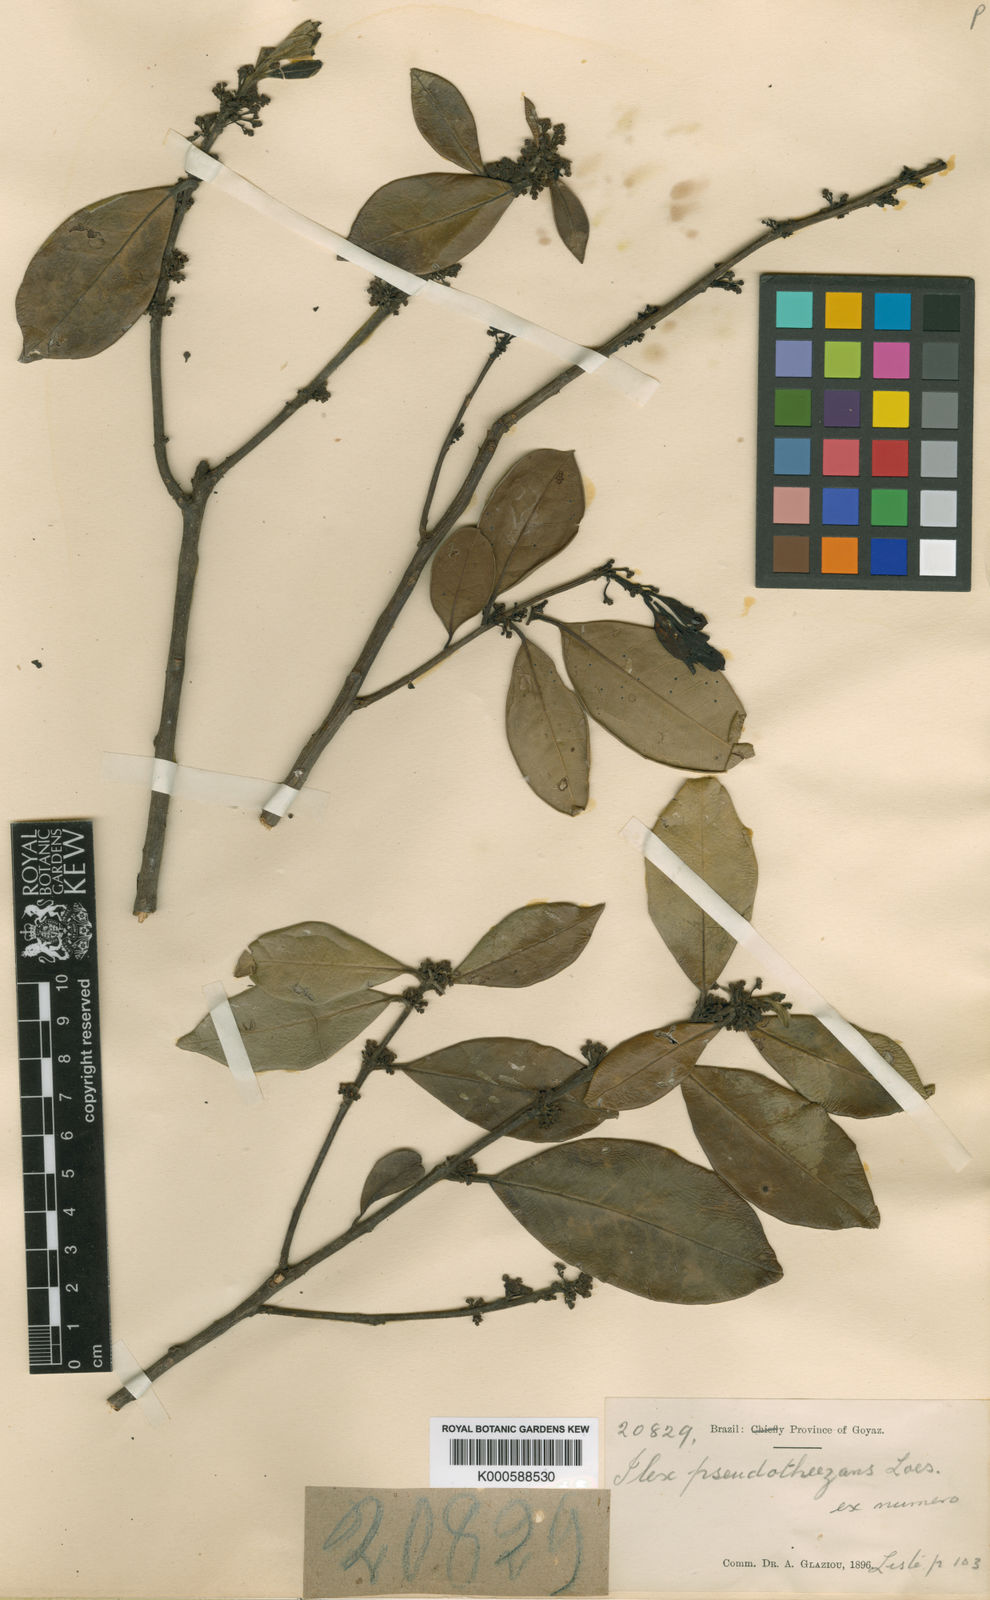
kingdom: Plantae
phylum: Tracheophyta
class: Magnoliopsida
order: Aquifoliales
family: Aquifoliaceae
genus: Ilex
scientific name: Ilex pseudotheezans
